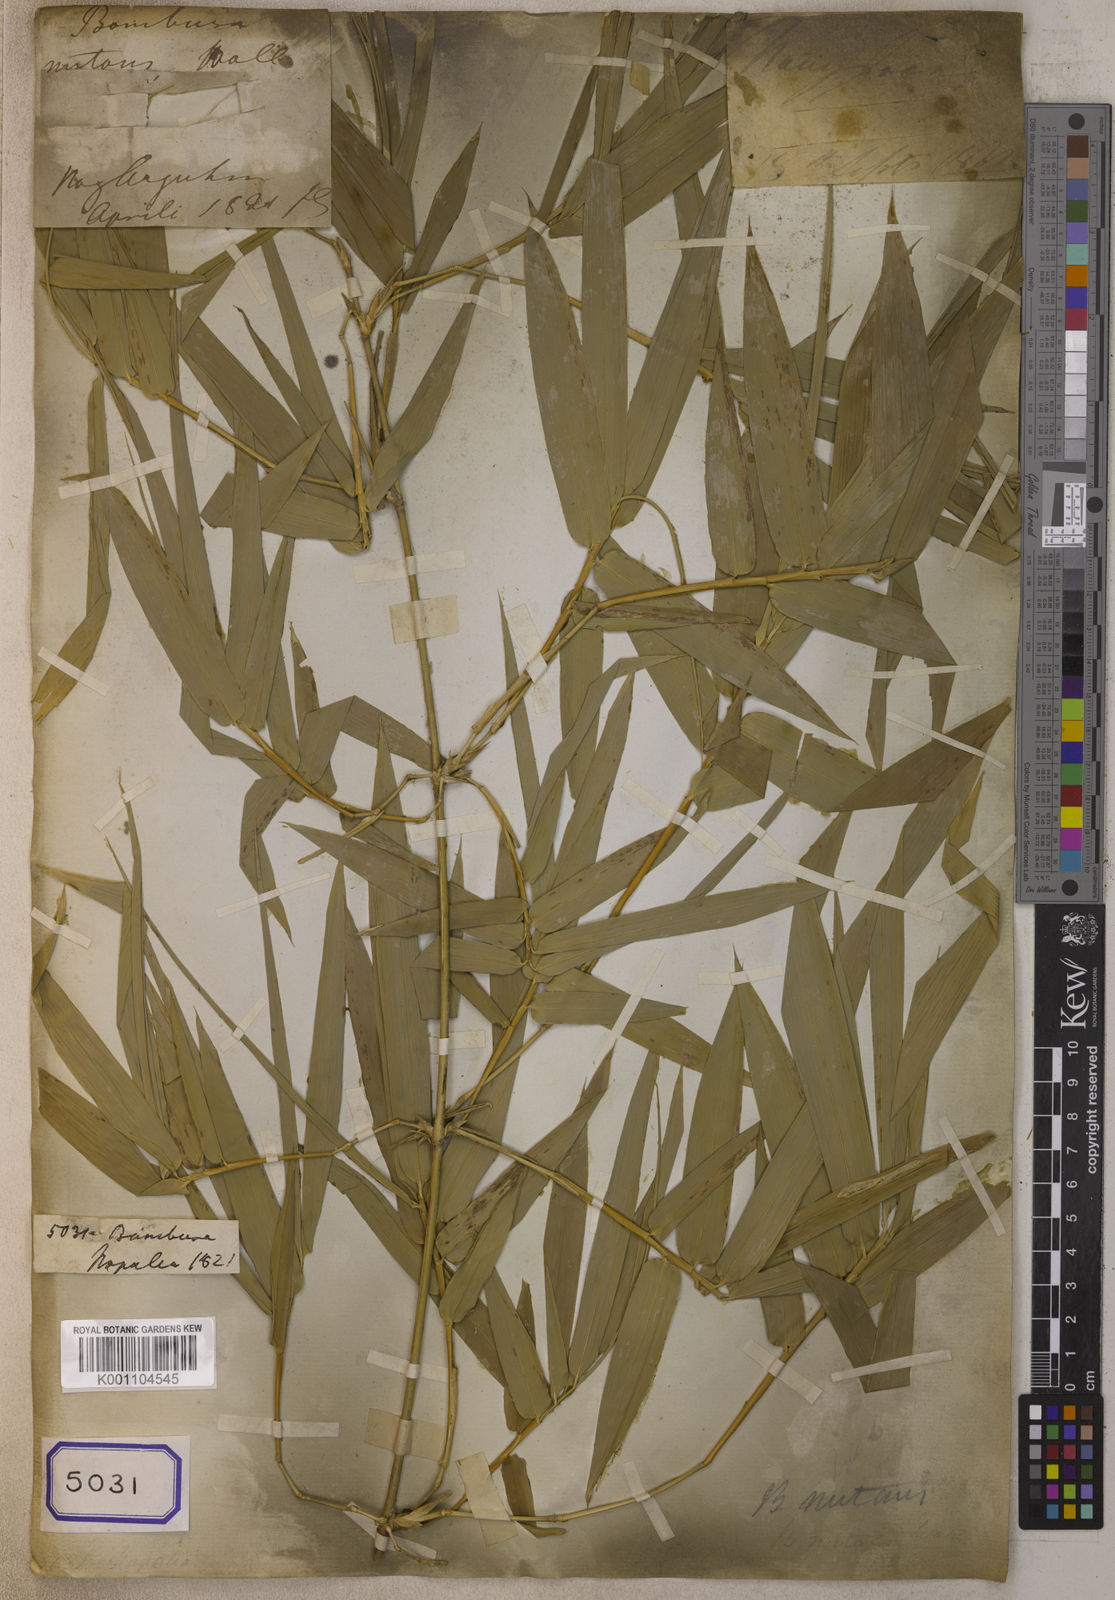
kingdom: Plantae
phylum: Tracheophyta
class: Liliopsida
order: Poales
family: Poaceae
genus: Bambusa
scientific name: Bambusa
